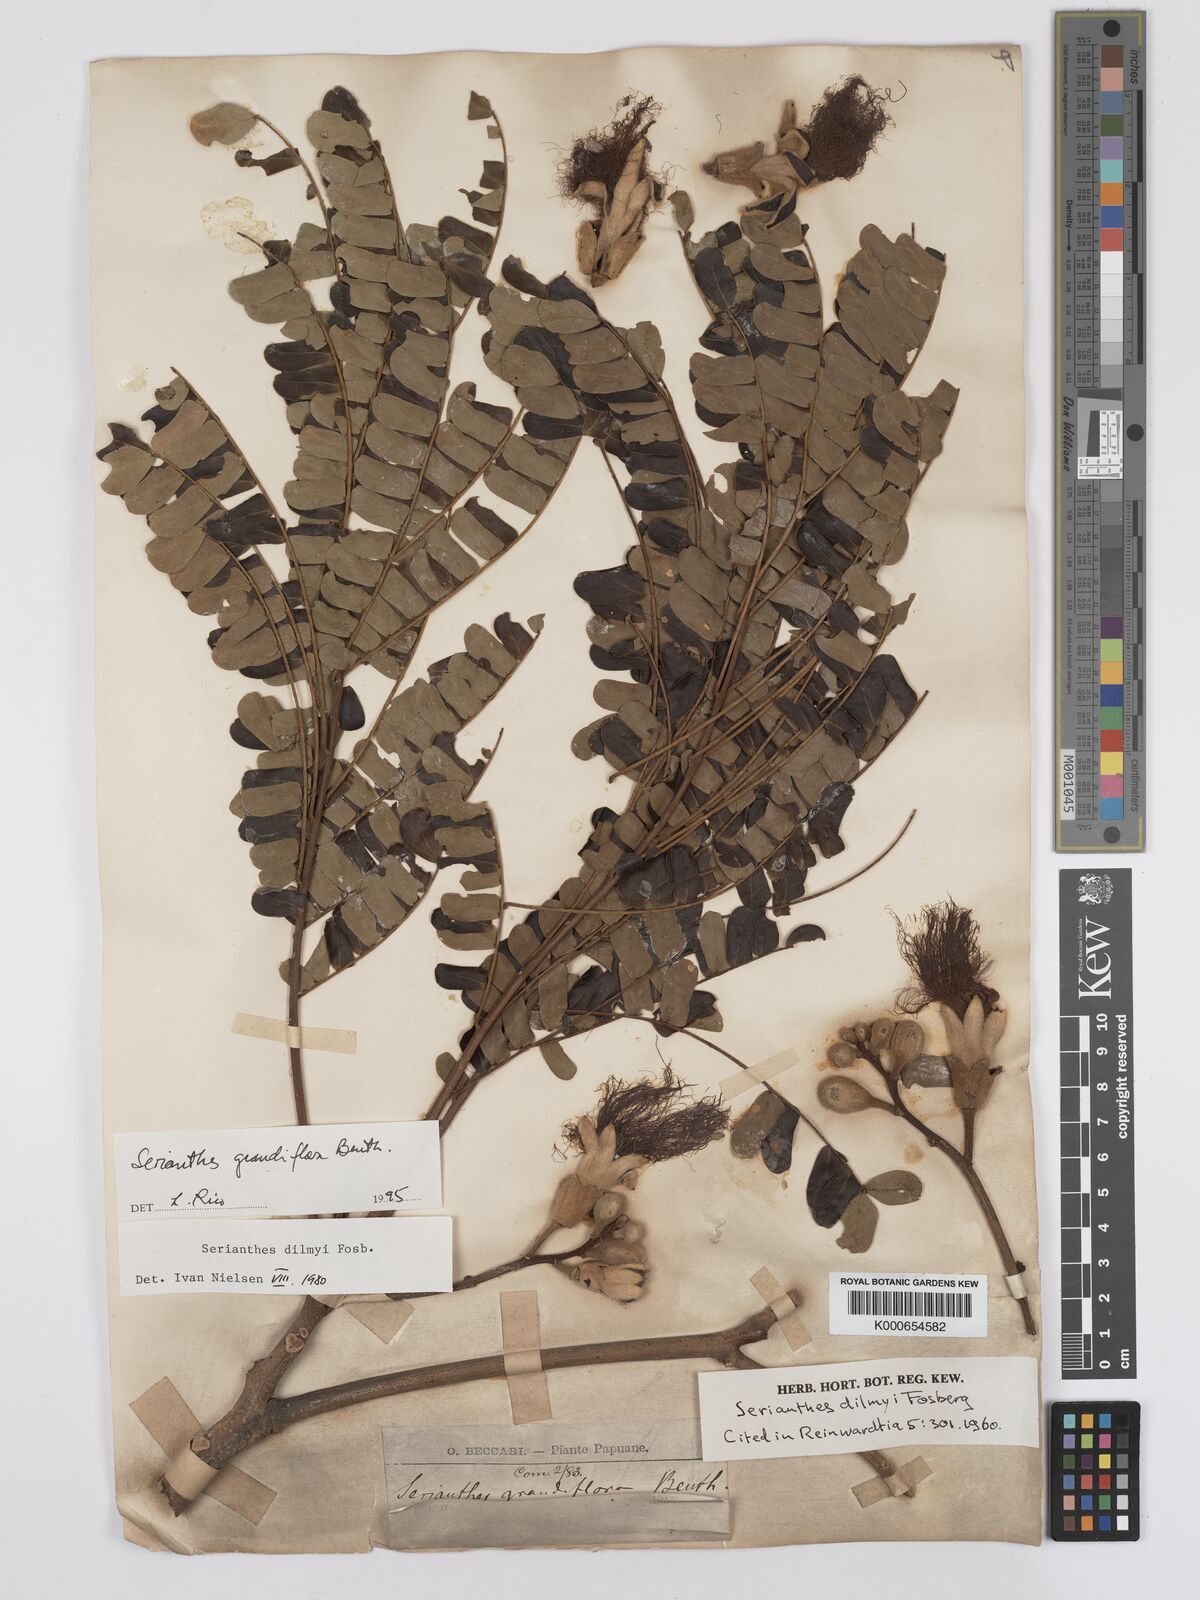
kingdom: Plantae
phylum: Tracheophyta
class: Magnoliopsida
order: Fabales
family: Fabaceae
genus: Serianthes
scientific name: Serianthes grandiflora
